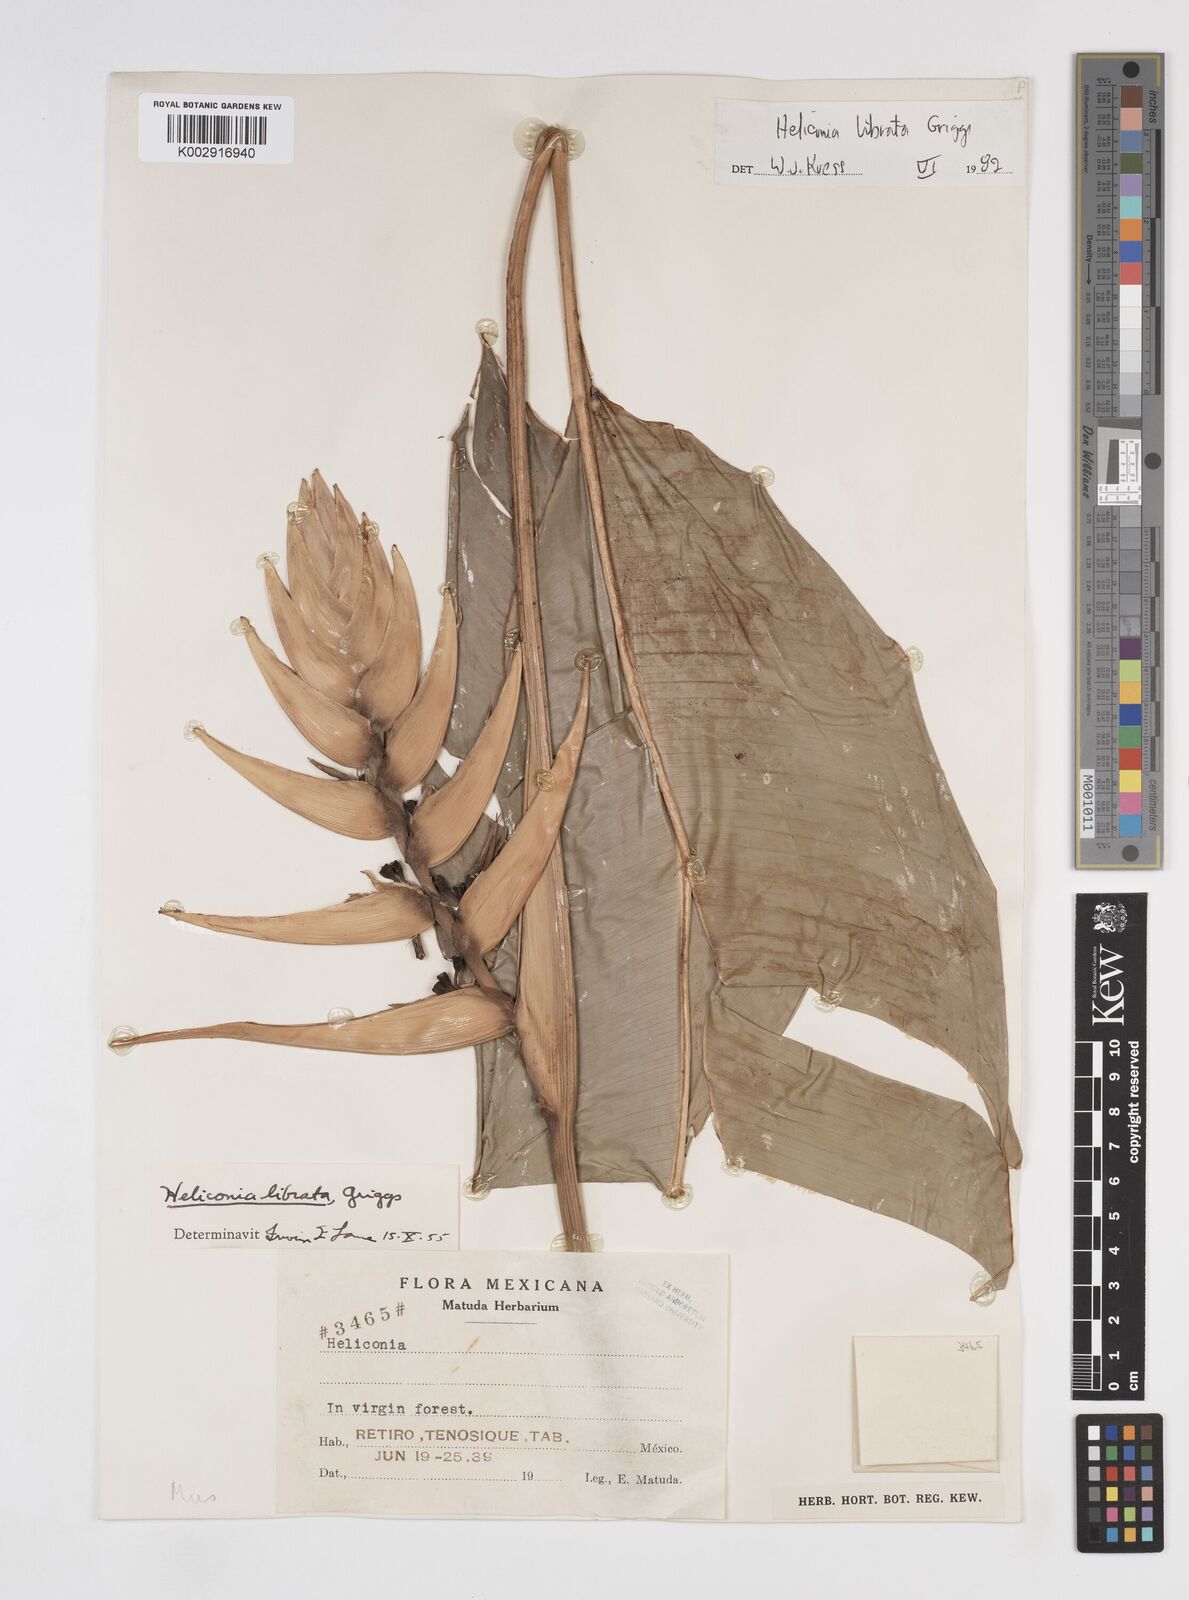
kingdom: Plantae
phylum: Tracheophyta
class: Liliopsida
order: Zingiberales
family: Heliconiaceae
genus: Heliconia
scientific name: Heliconia librata
